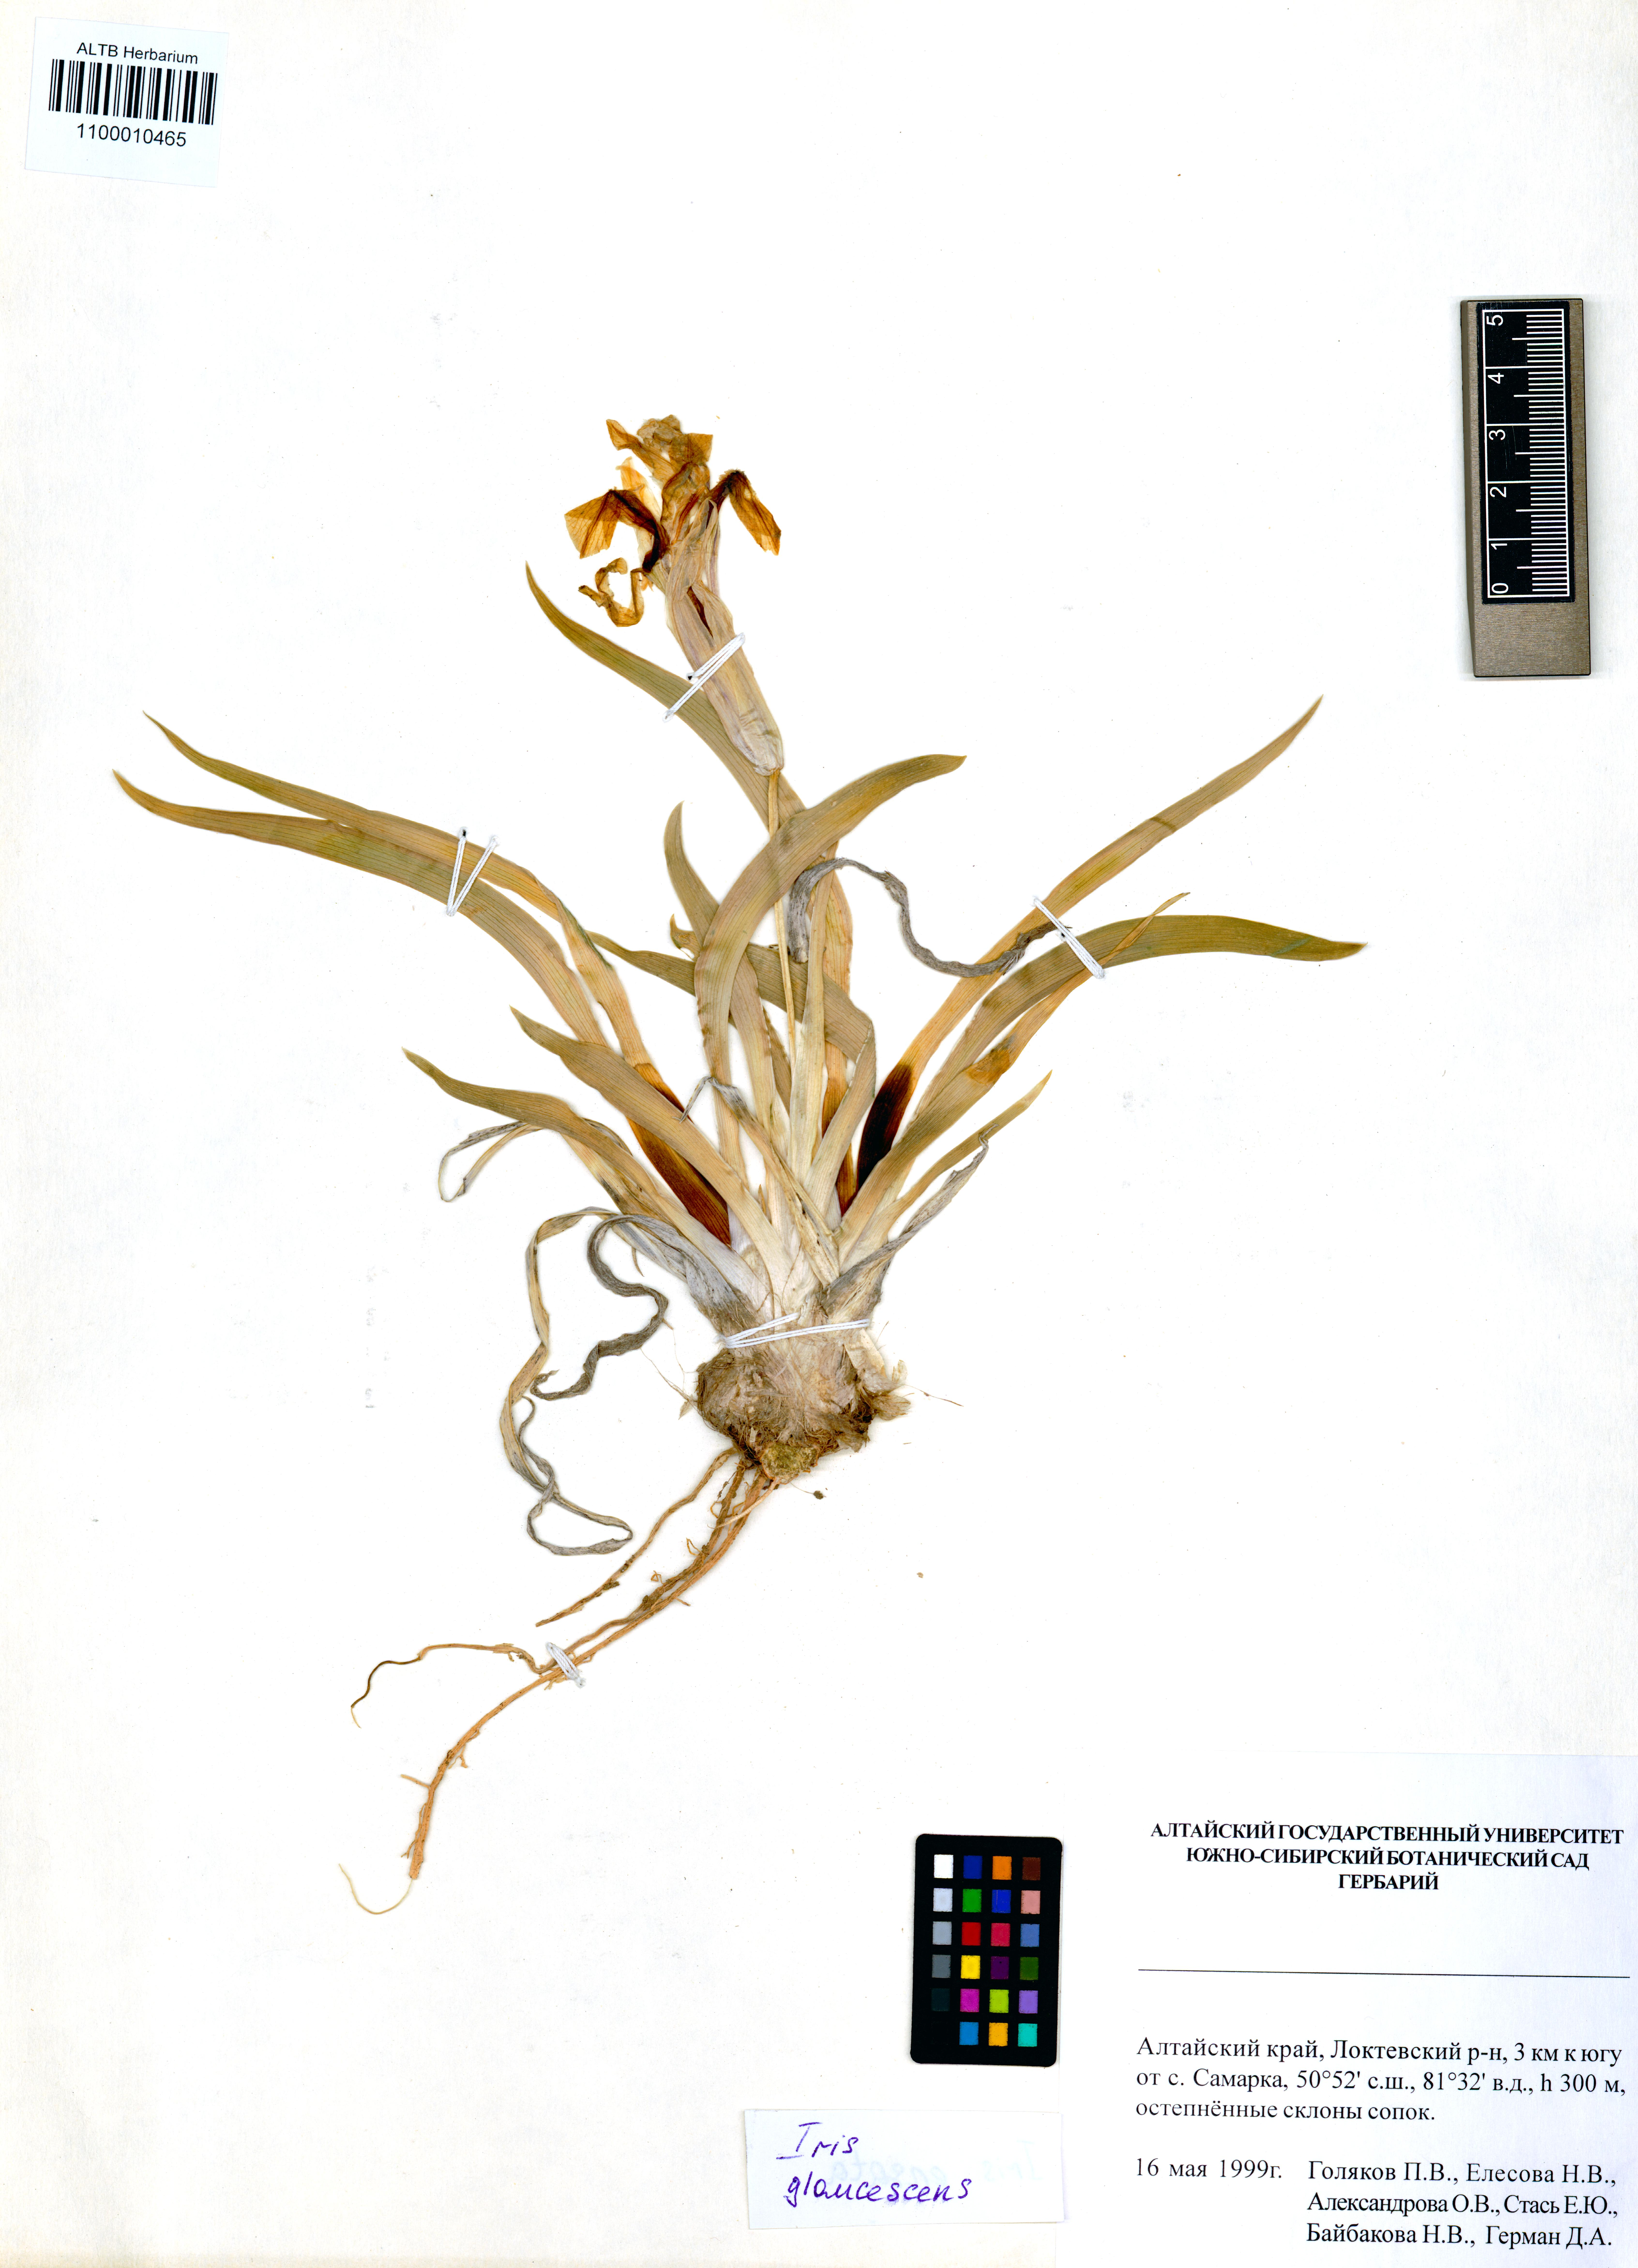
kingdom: Plantae
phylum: Tracheophyta
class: Liliopsida
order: Asparagales
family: Iridaceae
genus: Iris
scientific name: Iris glaucescens
